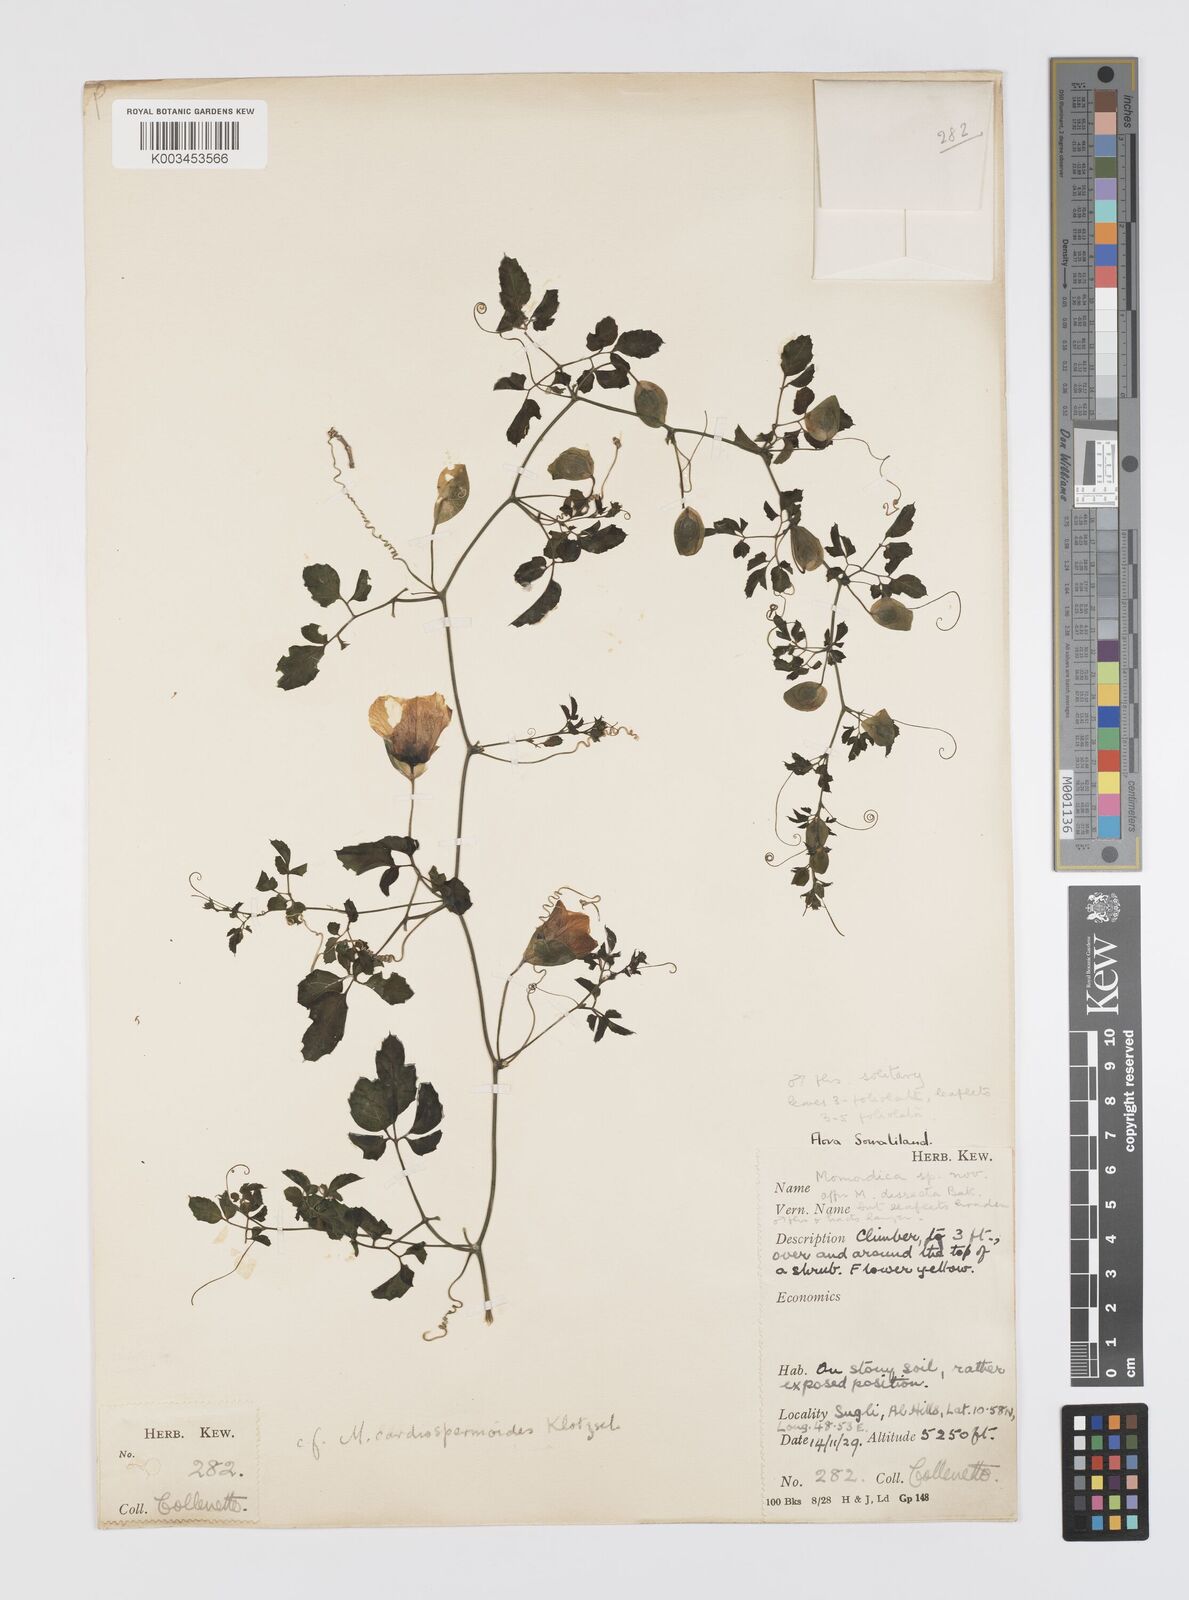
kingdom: Plantae
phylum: Tracheophyta
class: Magnoliopsida
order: Cucurbitales
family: Cucurbitaceae
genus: Momordica
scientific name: Momordica trifoliolata
